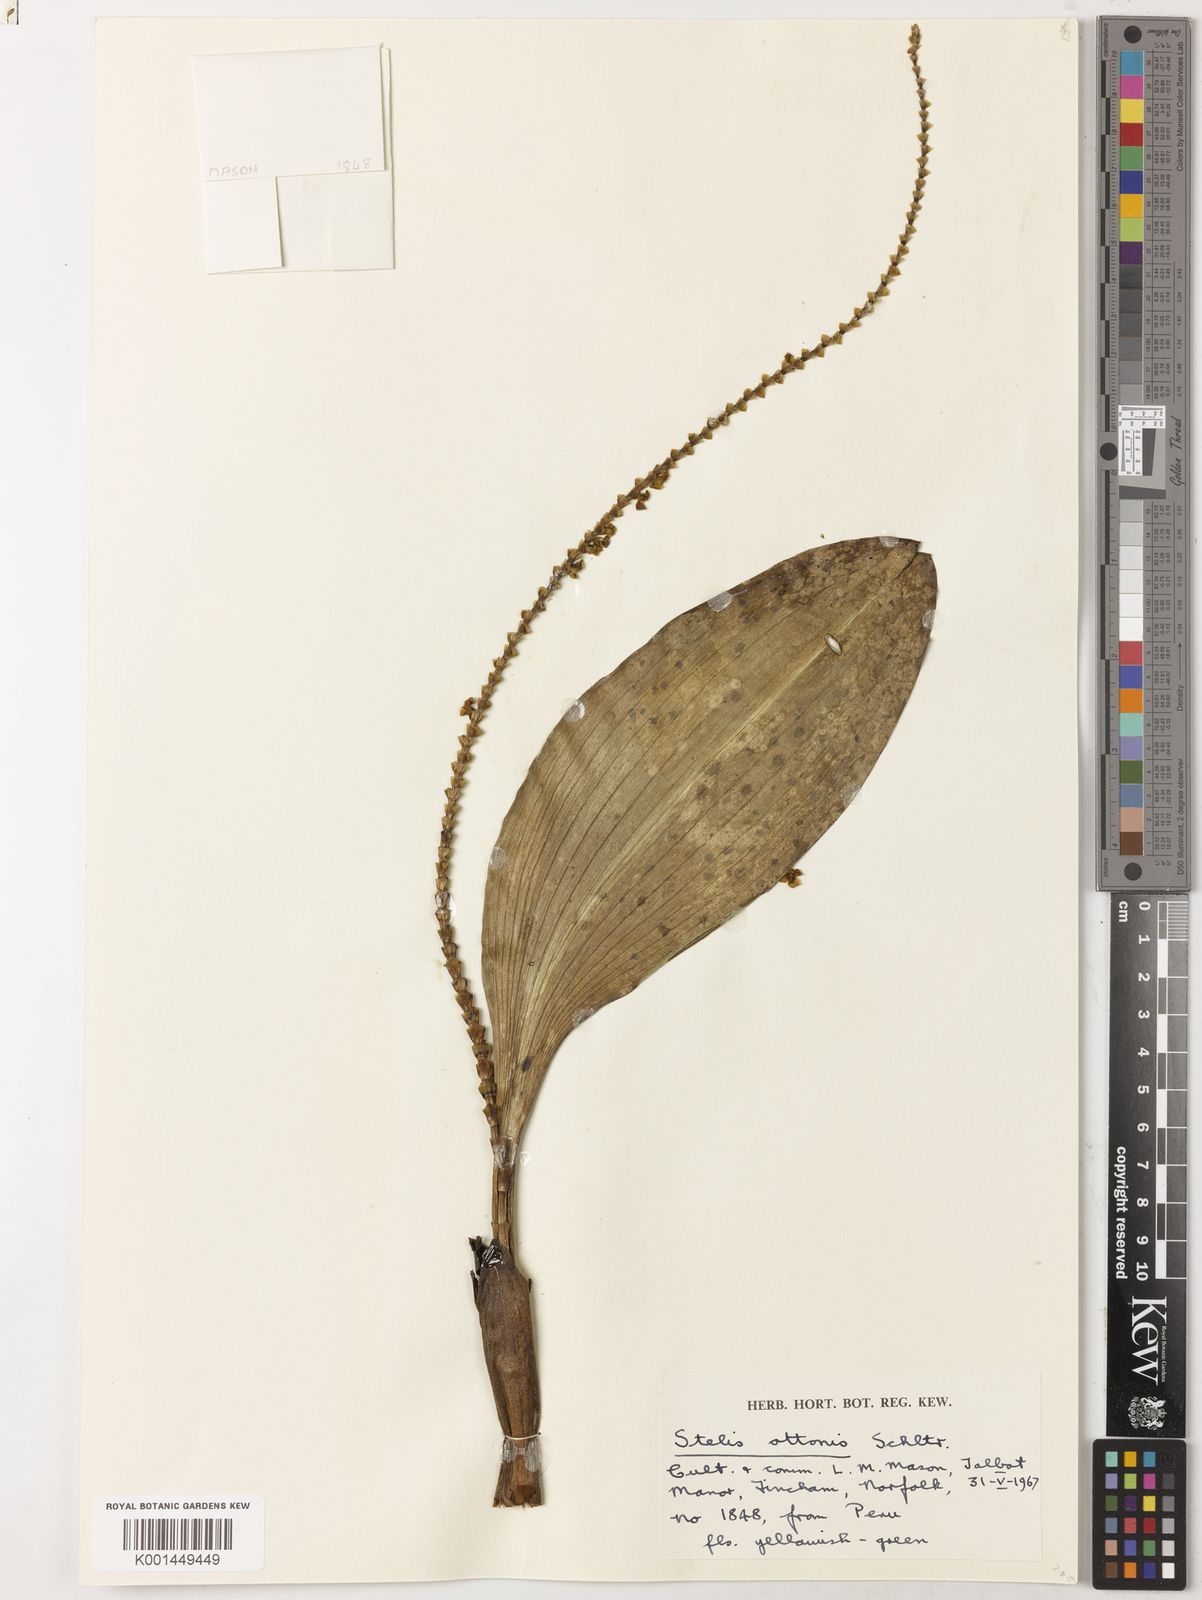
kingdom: Plantae
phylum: Tracheophyta
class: Liliopsida
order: Asparagales
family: Orchidaceae
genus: Stelis
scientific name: Stelis papaquerensis
